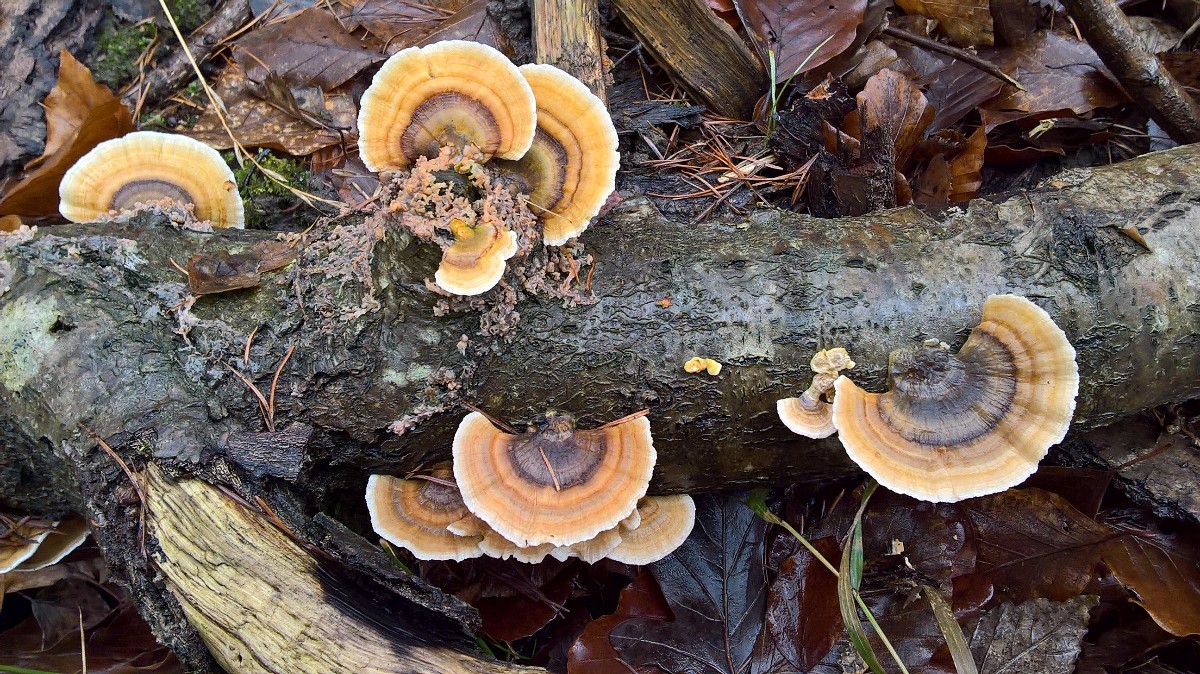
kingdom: Fungi
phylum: Basidiomycota
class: Agaricomycetes
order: Polyporales
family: Polyporaceae
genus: Trametes
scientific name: Trametes versicolor
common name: broget læderporesvamp
